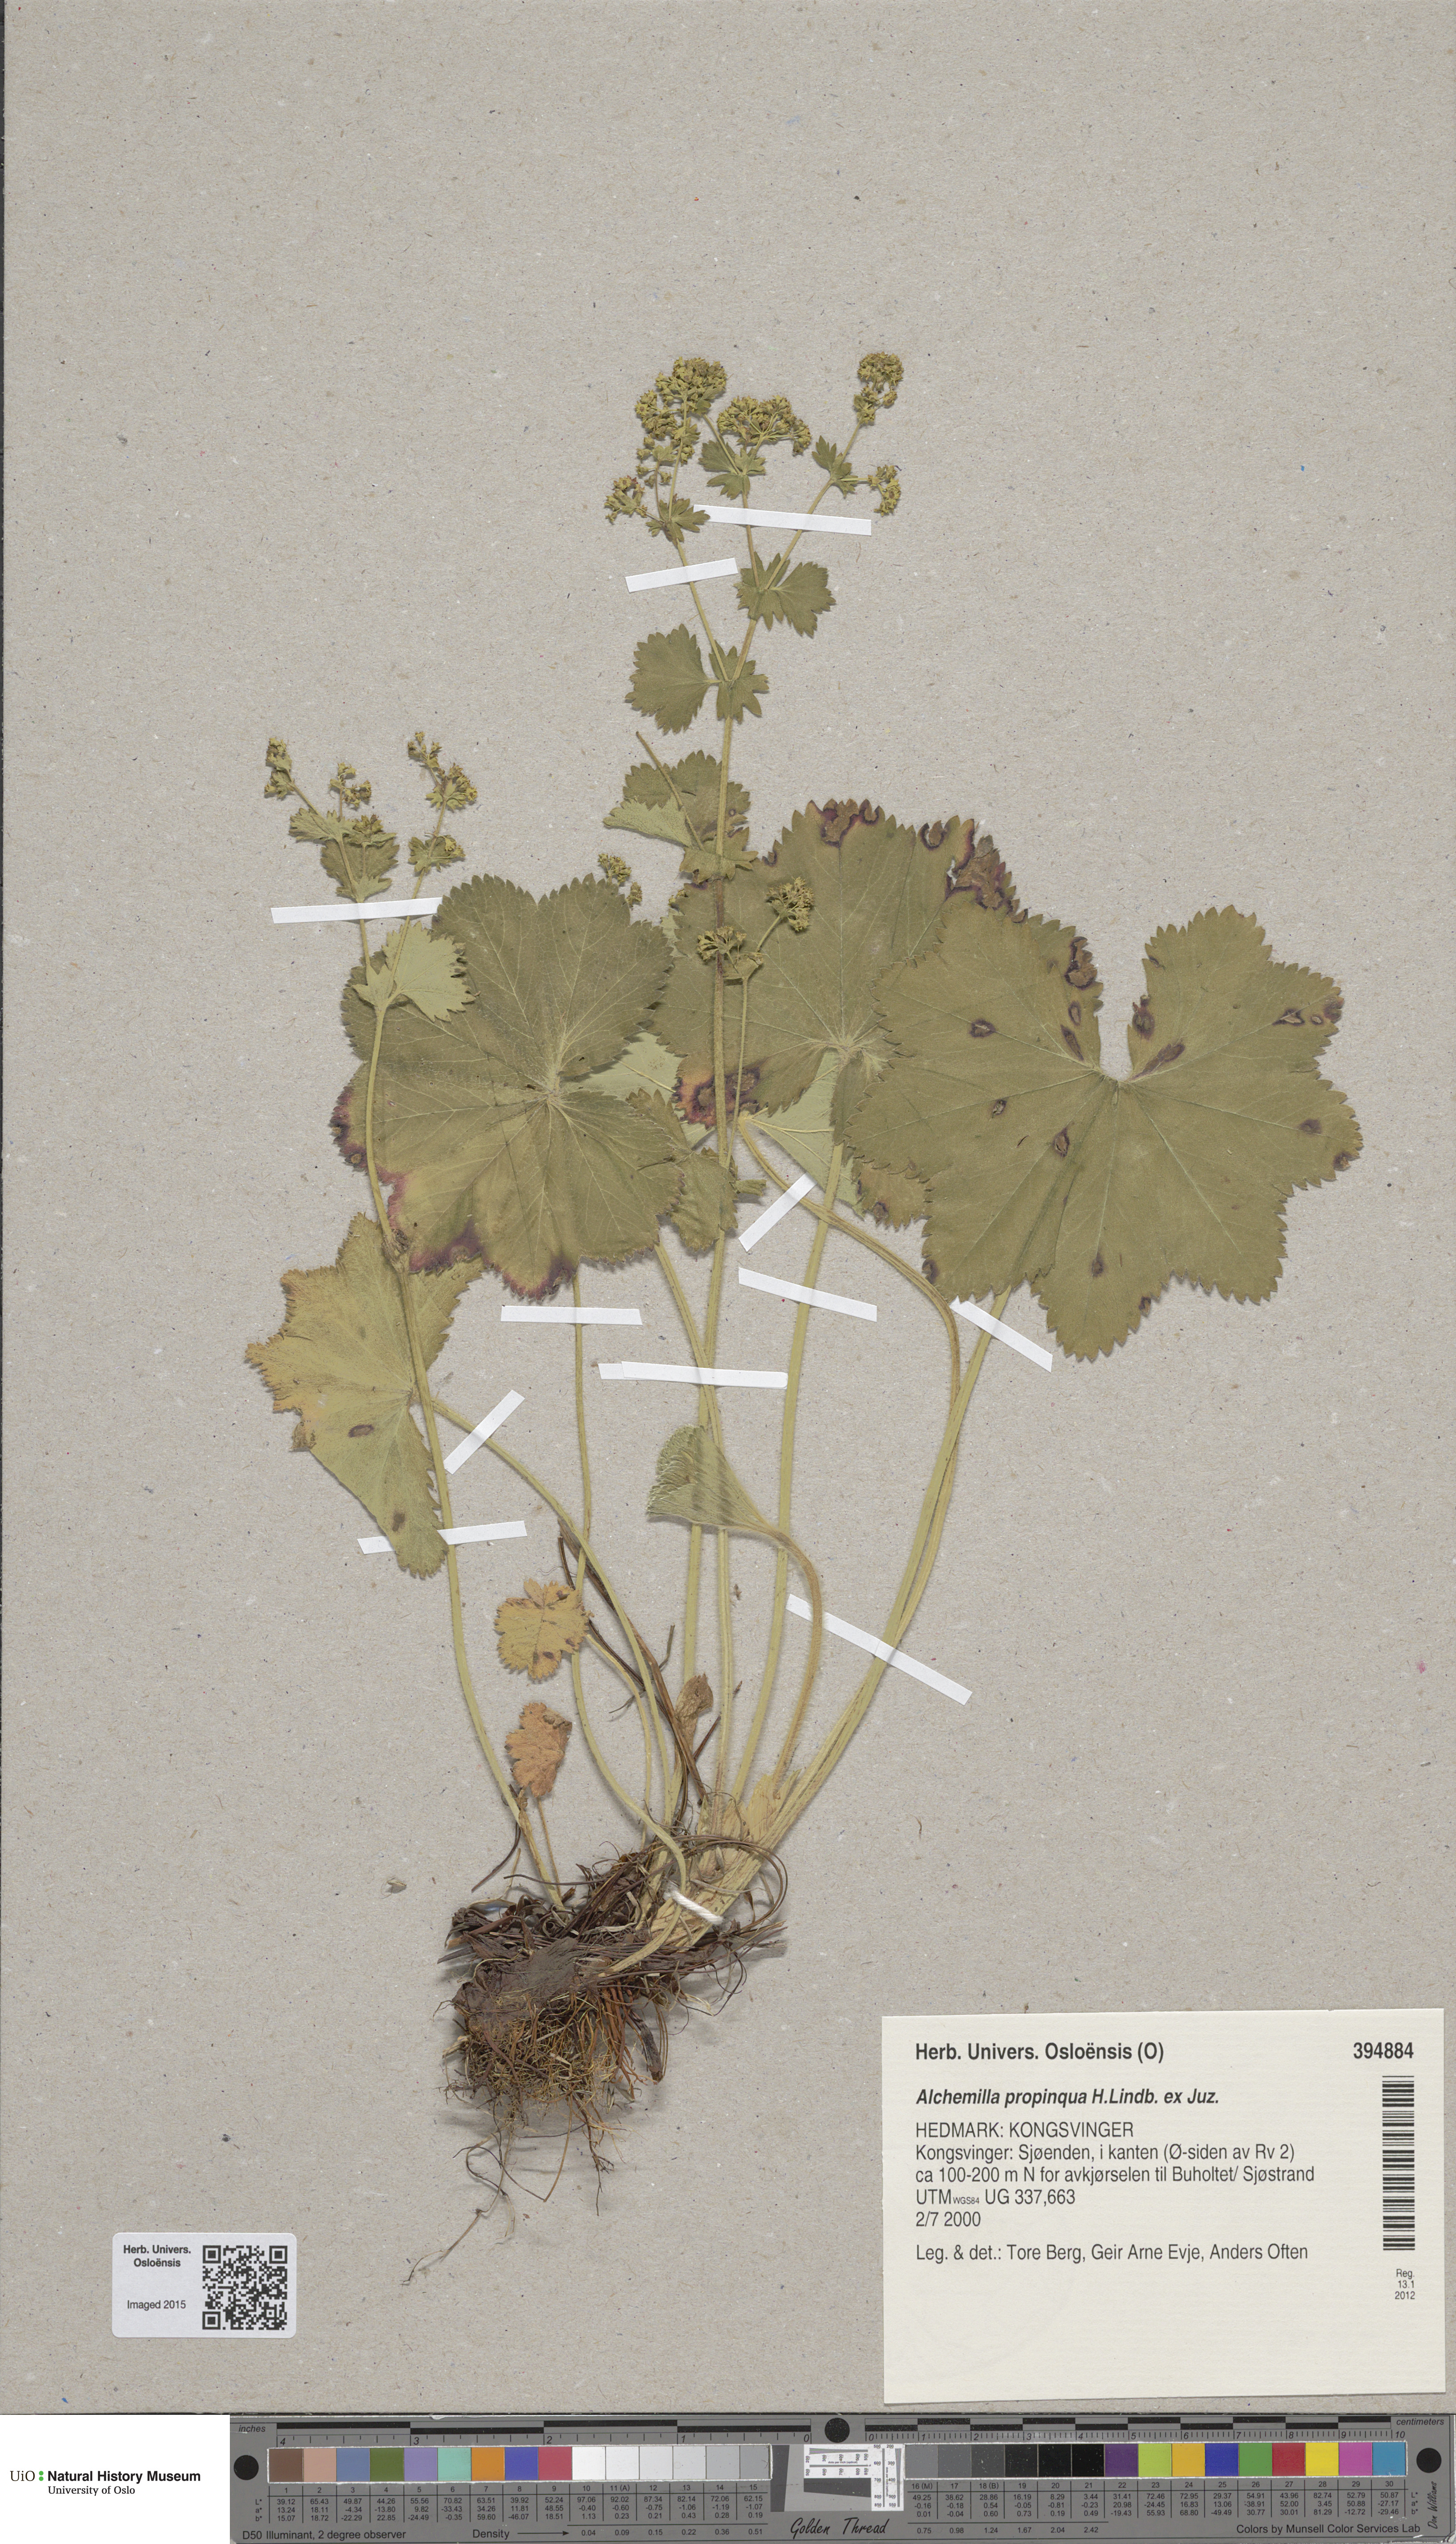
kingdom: Plantae
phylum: Tracheophyta
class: Magnoliopsida
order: Rosales
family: Rosaceae
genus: Alchemilla
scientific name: Alchemilla propinqua
